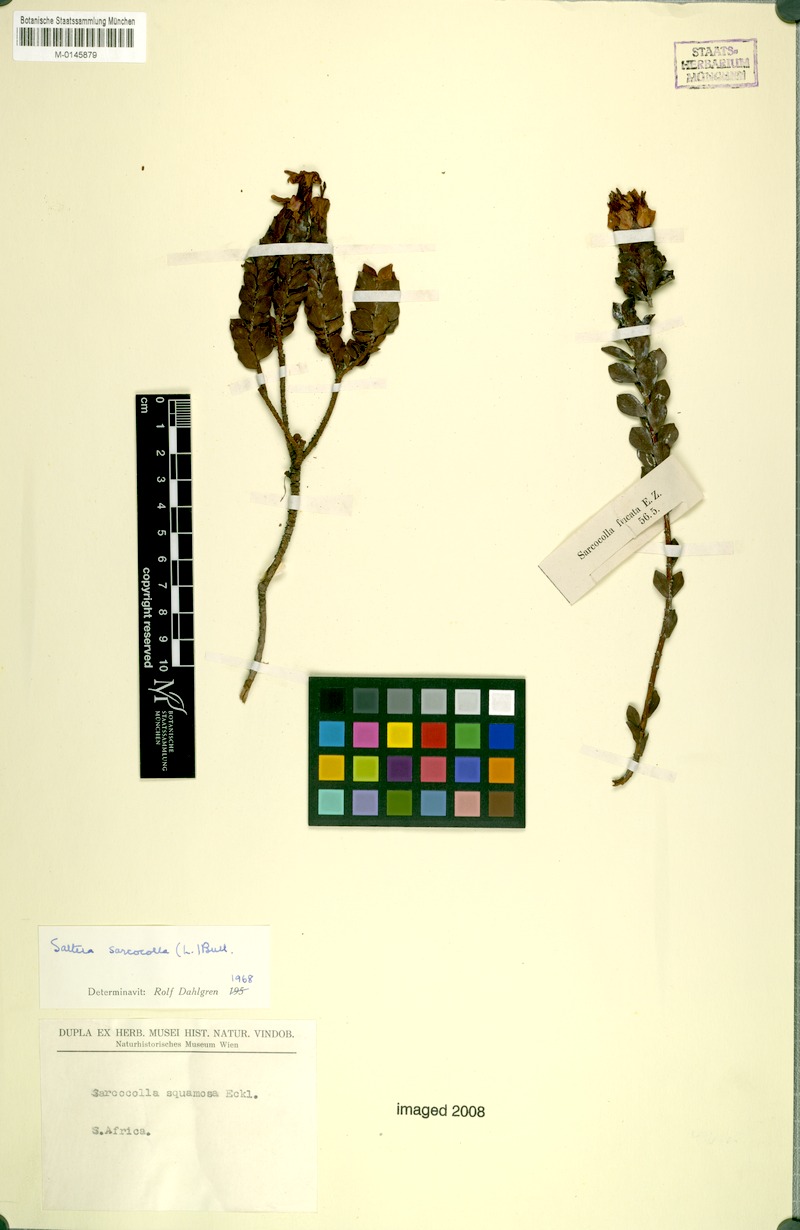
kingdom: Plantae
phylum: Tracheophyta
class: Magnoliopsida
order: Myrtales
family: Penaeaceae
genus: Saltera
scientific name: Saltera sarcocolla
